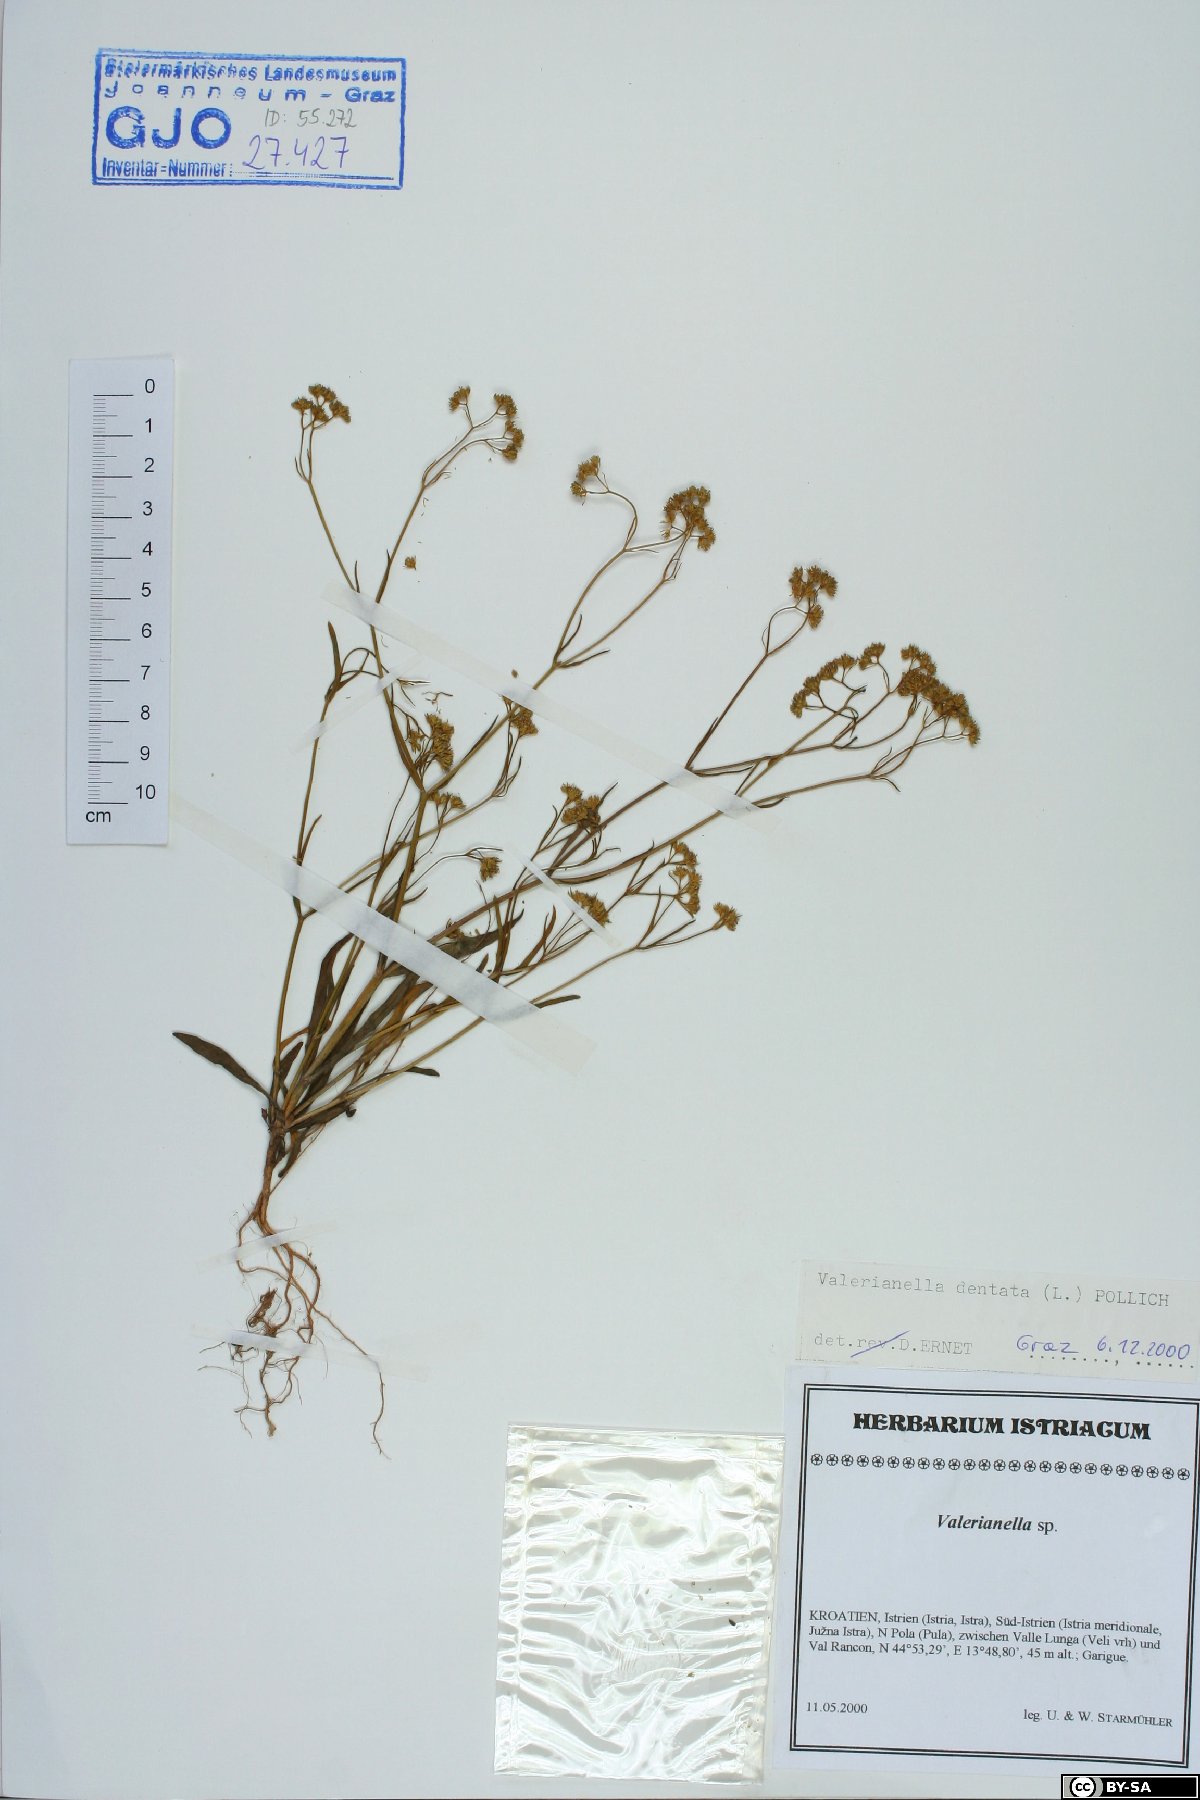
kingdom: Plantae
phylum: Tracheophyta
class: Magnoliopsida
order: Dipsacales
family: Caprifoliaceae
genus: Valerianella
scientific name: Valerianella dentata
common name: Narrow-fruited cornsalad
